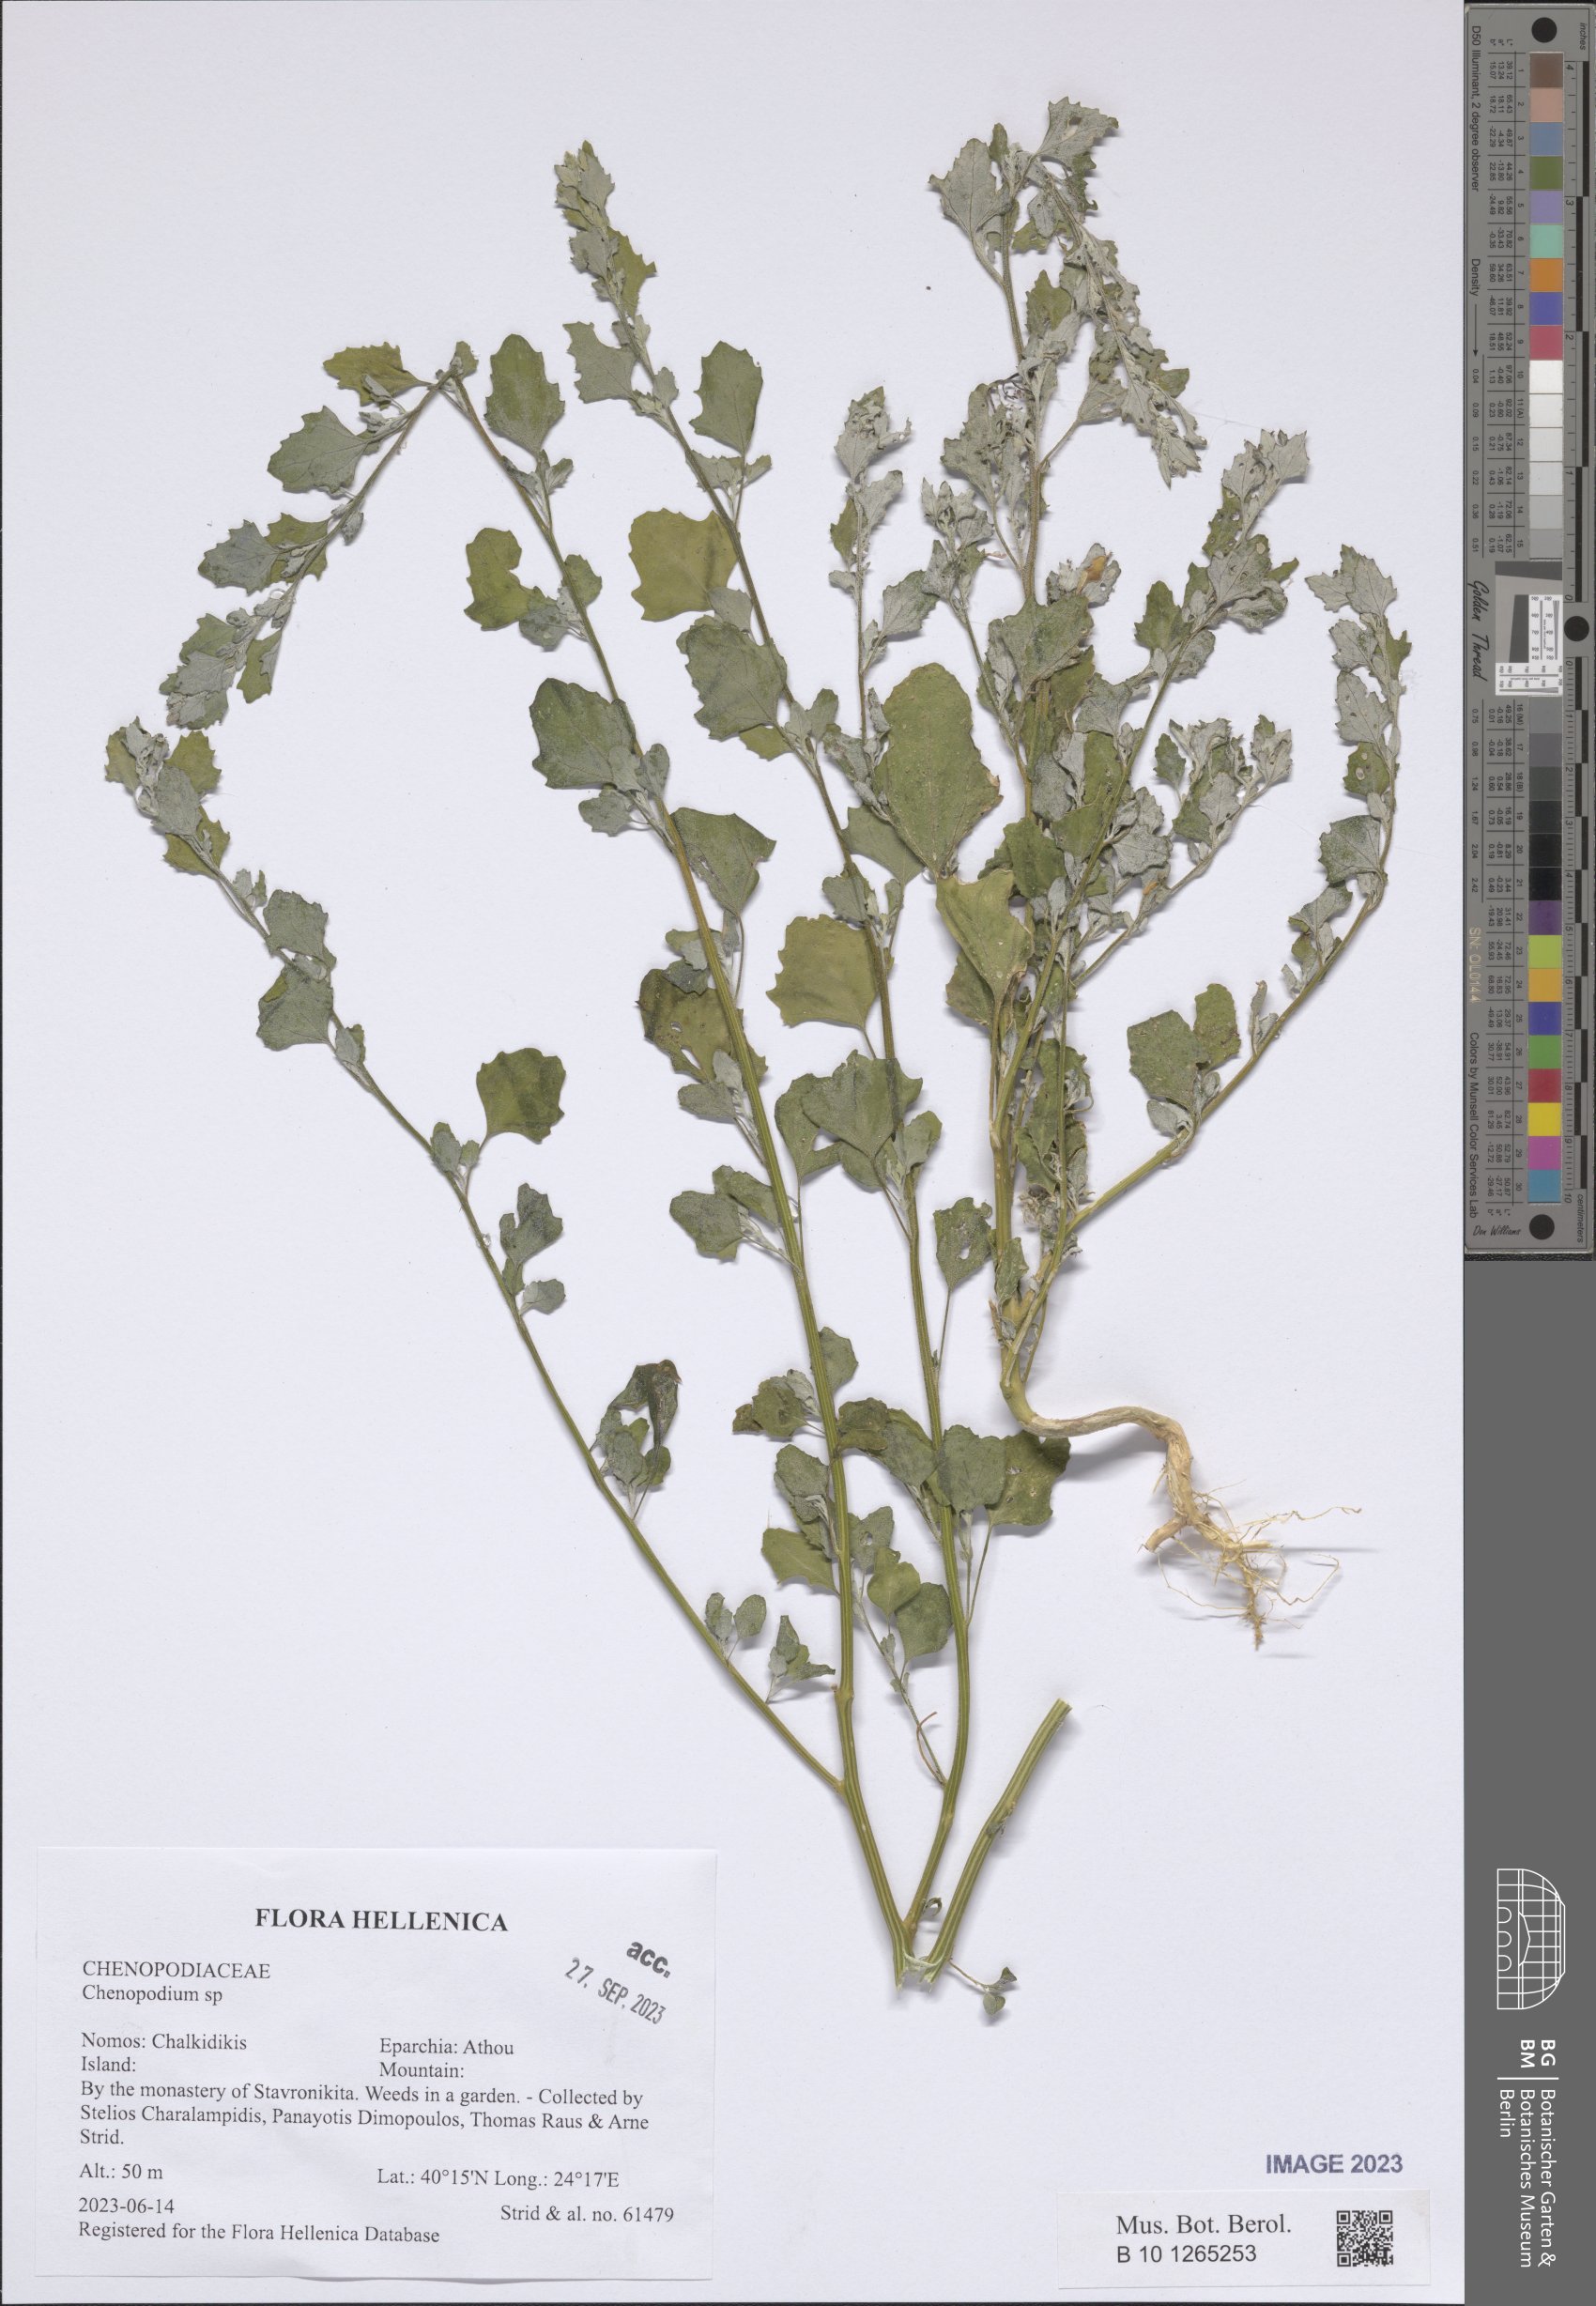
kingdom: Plantae
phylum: Tracheophyta
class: Magnoliopsida
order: Caryophyllales
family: Amaranthaceae
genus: Chenopodium
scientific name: Chenopodium
